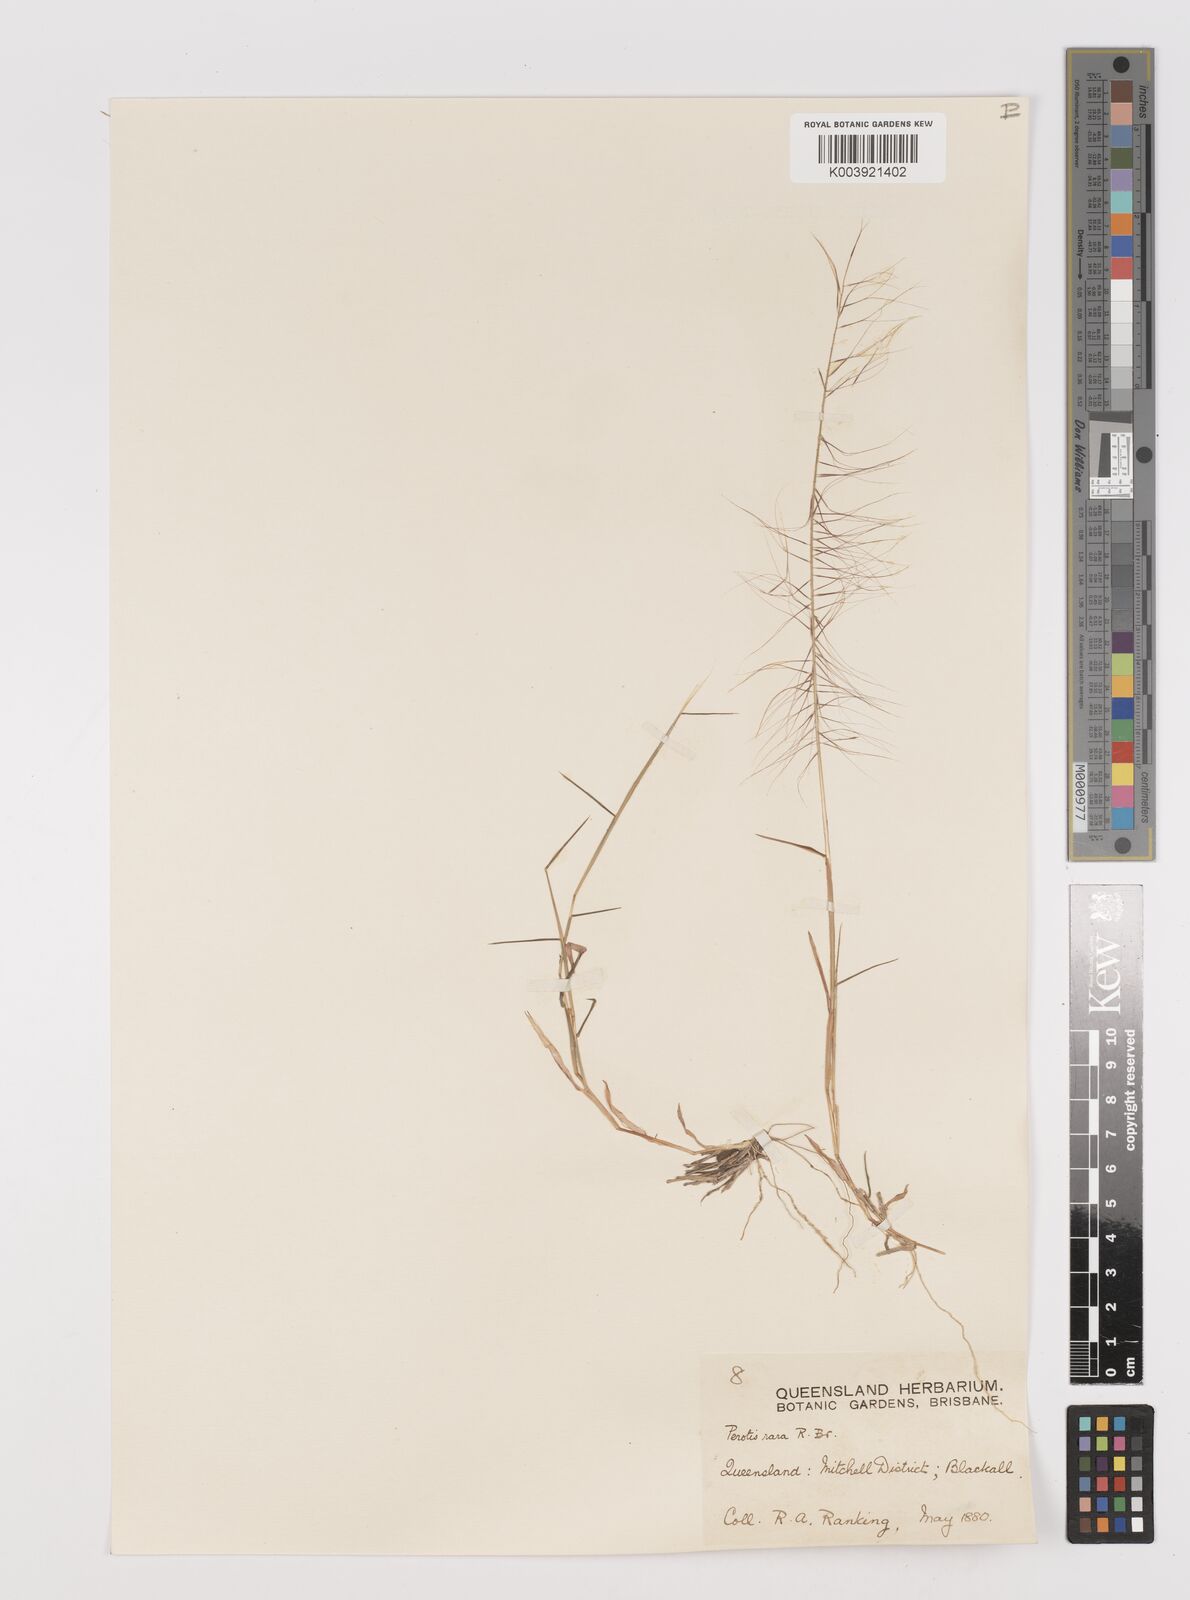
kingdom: Plantae
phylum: Tracheophyta
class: Liliopsida
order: Poales
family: Poaceae
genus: Perotis
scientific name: Perotis rara
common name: Comet grass
